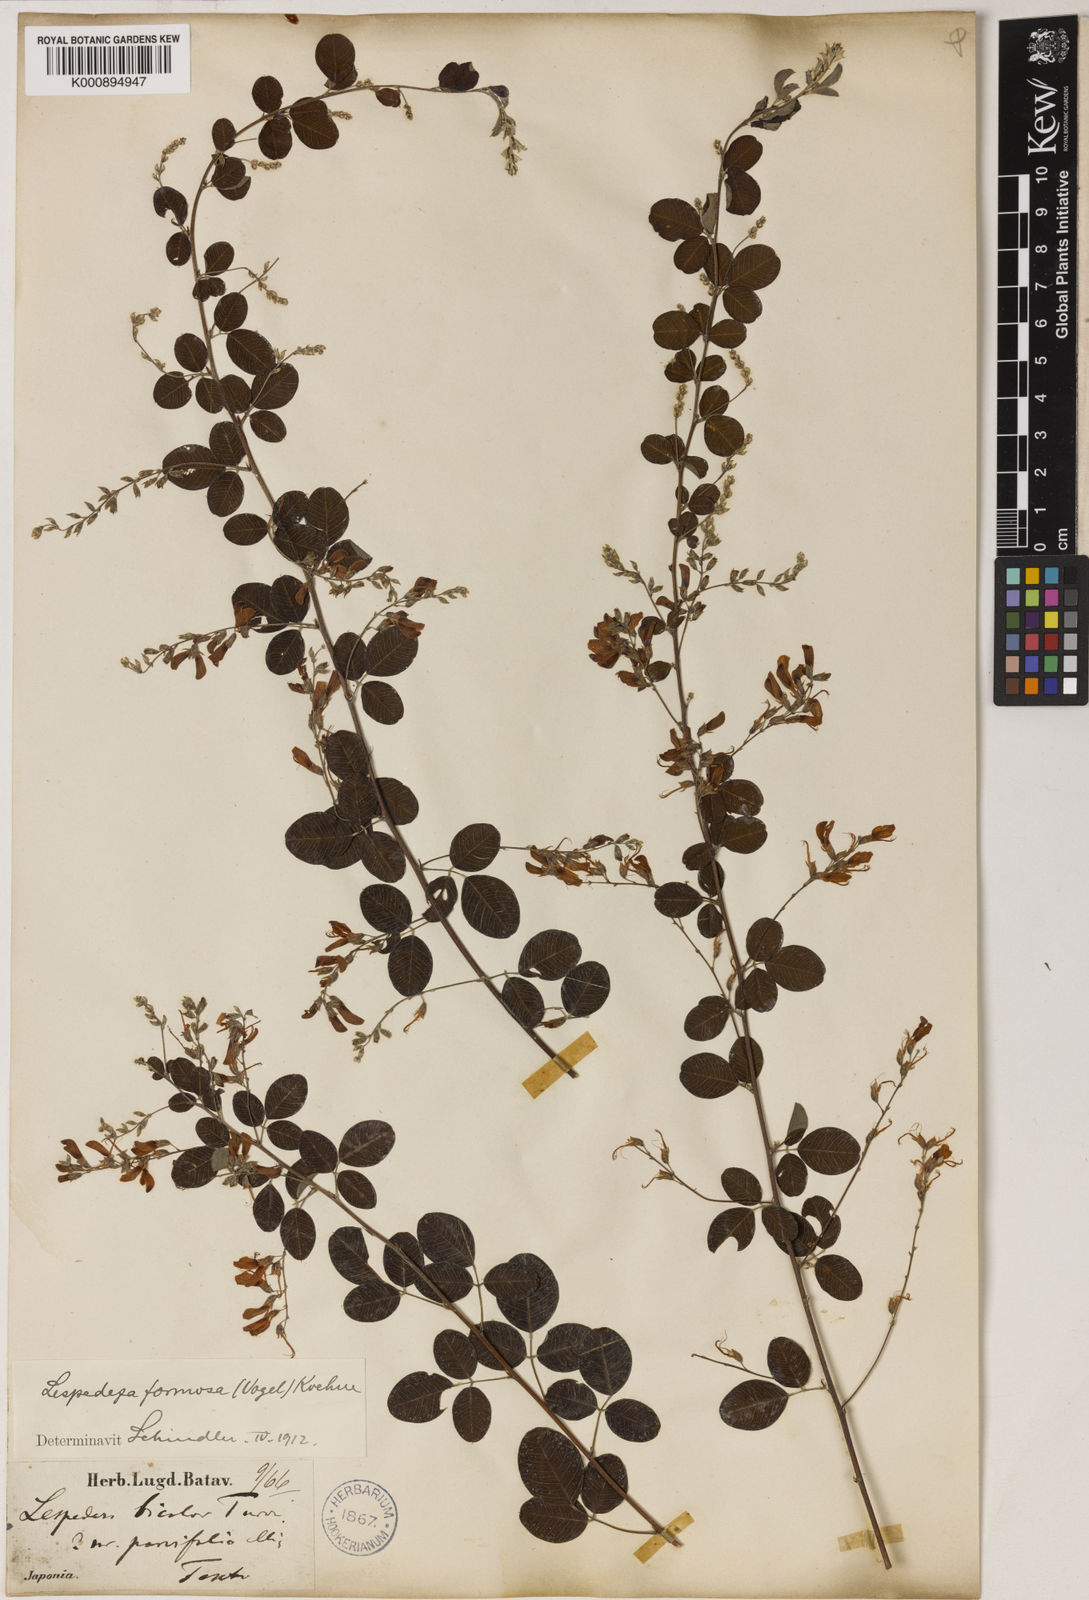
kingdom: Plantae
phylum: Tracheophyta
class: Magnoliopsida
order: Fabales
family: Fabaceae
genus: Lespedeza
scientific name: Lespedeza thunbergii
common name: Thunberg's lespedeza
